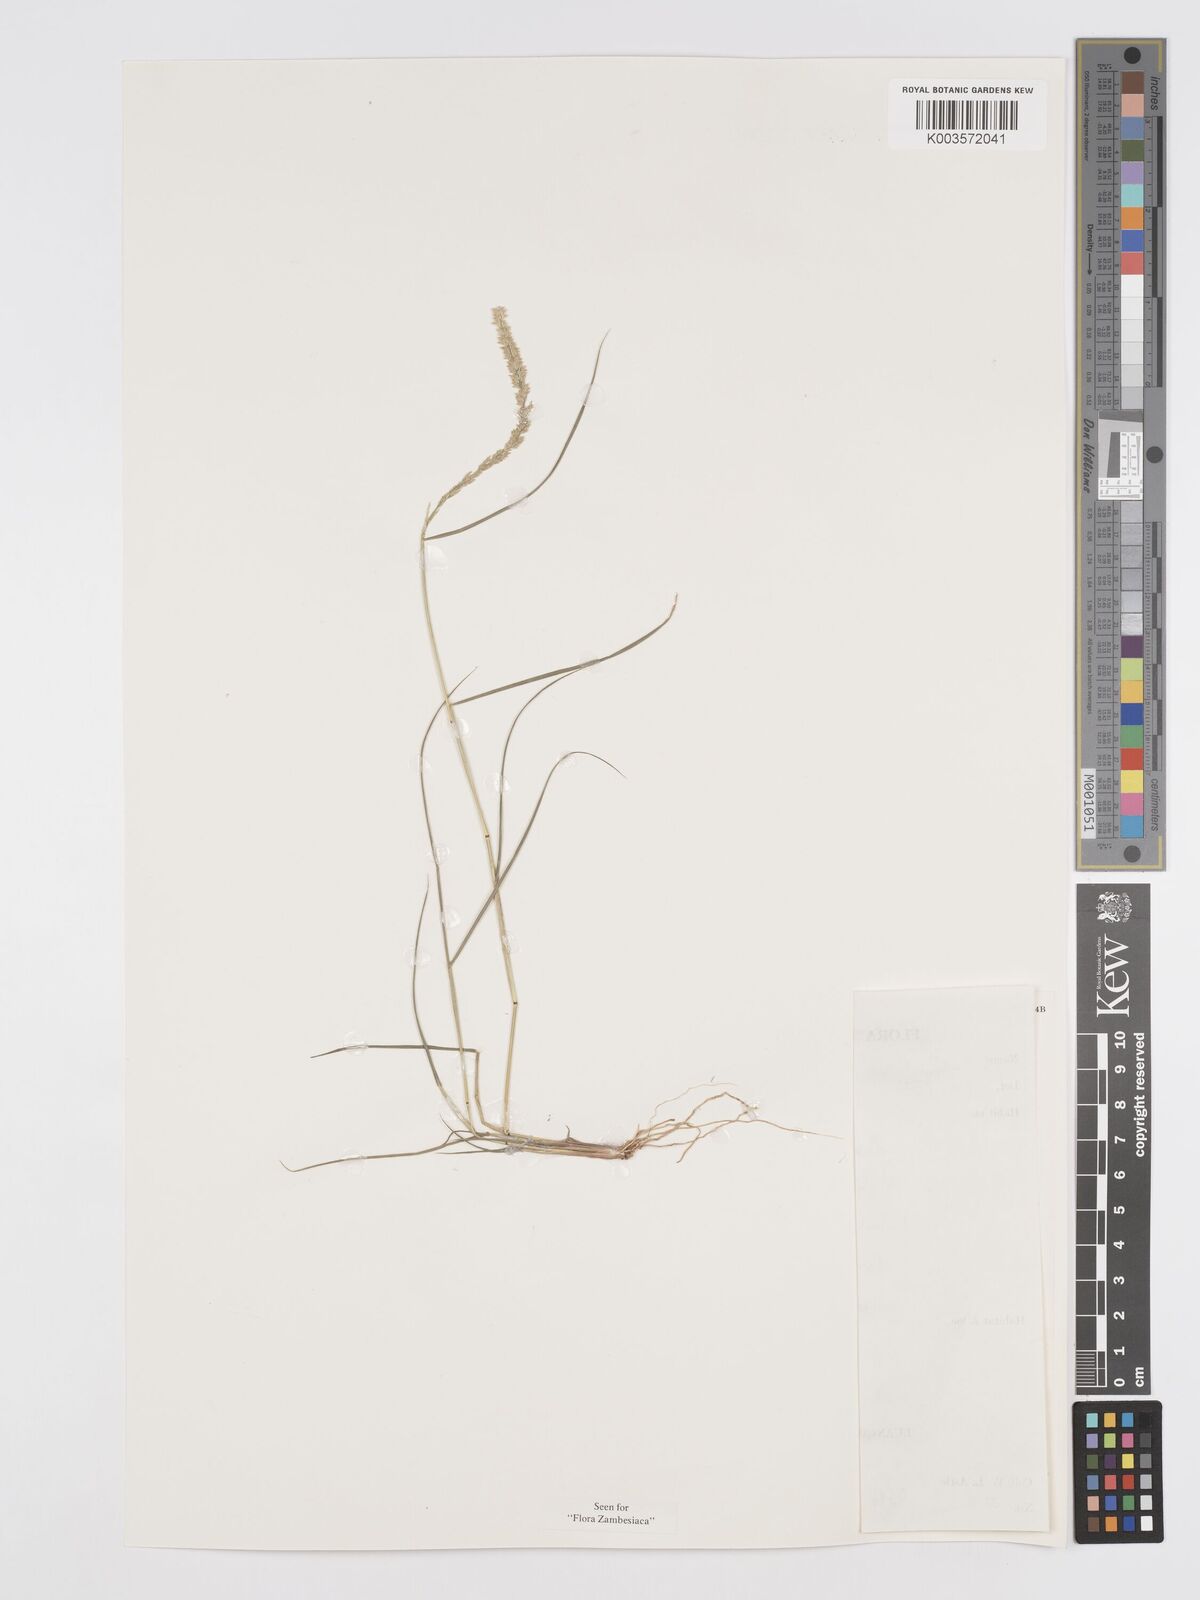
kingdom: Plantae
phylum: Tracheophyta
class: Liliopsida
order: Poales
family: Poaceae
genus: Eragrostis
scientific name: Eragrostis ciliaris
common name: Gophertail lovegrass
